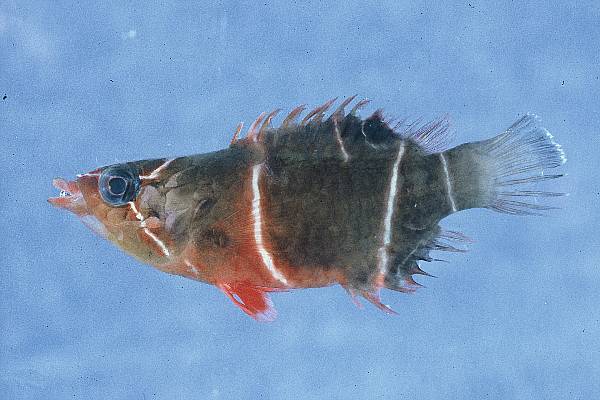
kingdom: Animalia
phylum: Chordata
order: Perciformes
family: Labridae
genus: Wetmorella
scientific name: Wetmorella albofasciata
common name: Whitebanded sharpnose wrasse
